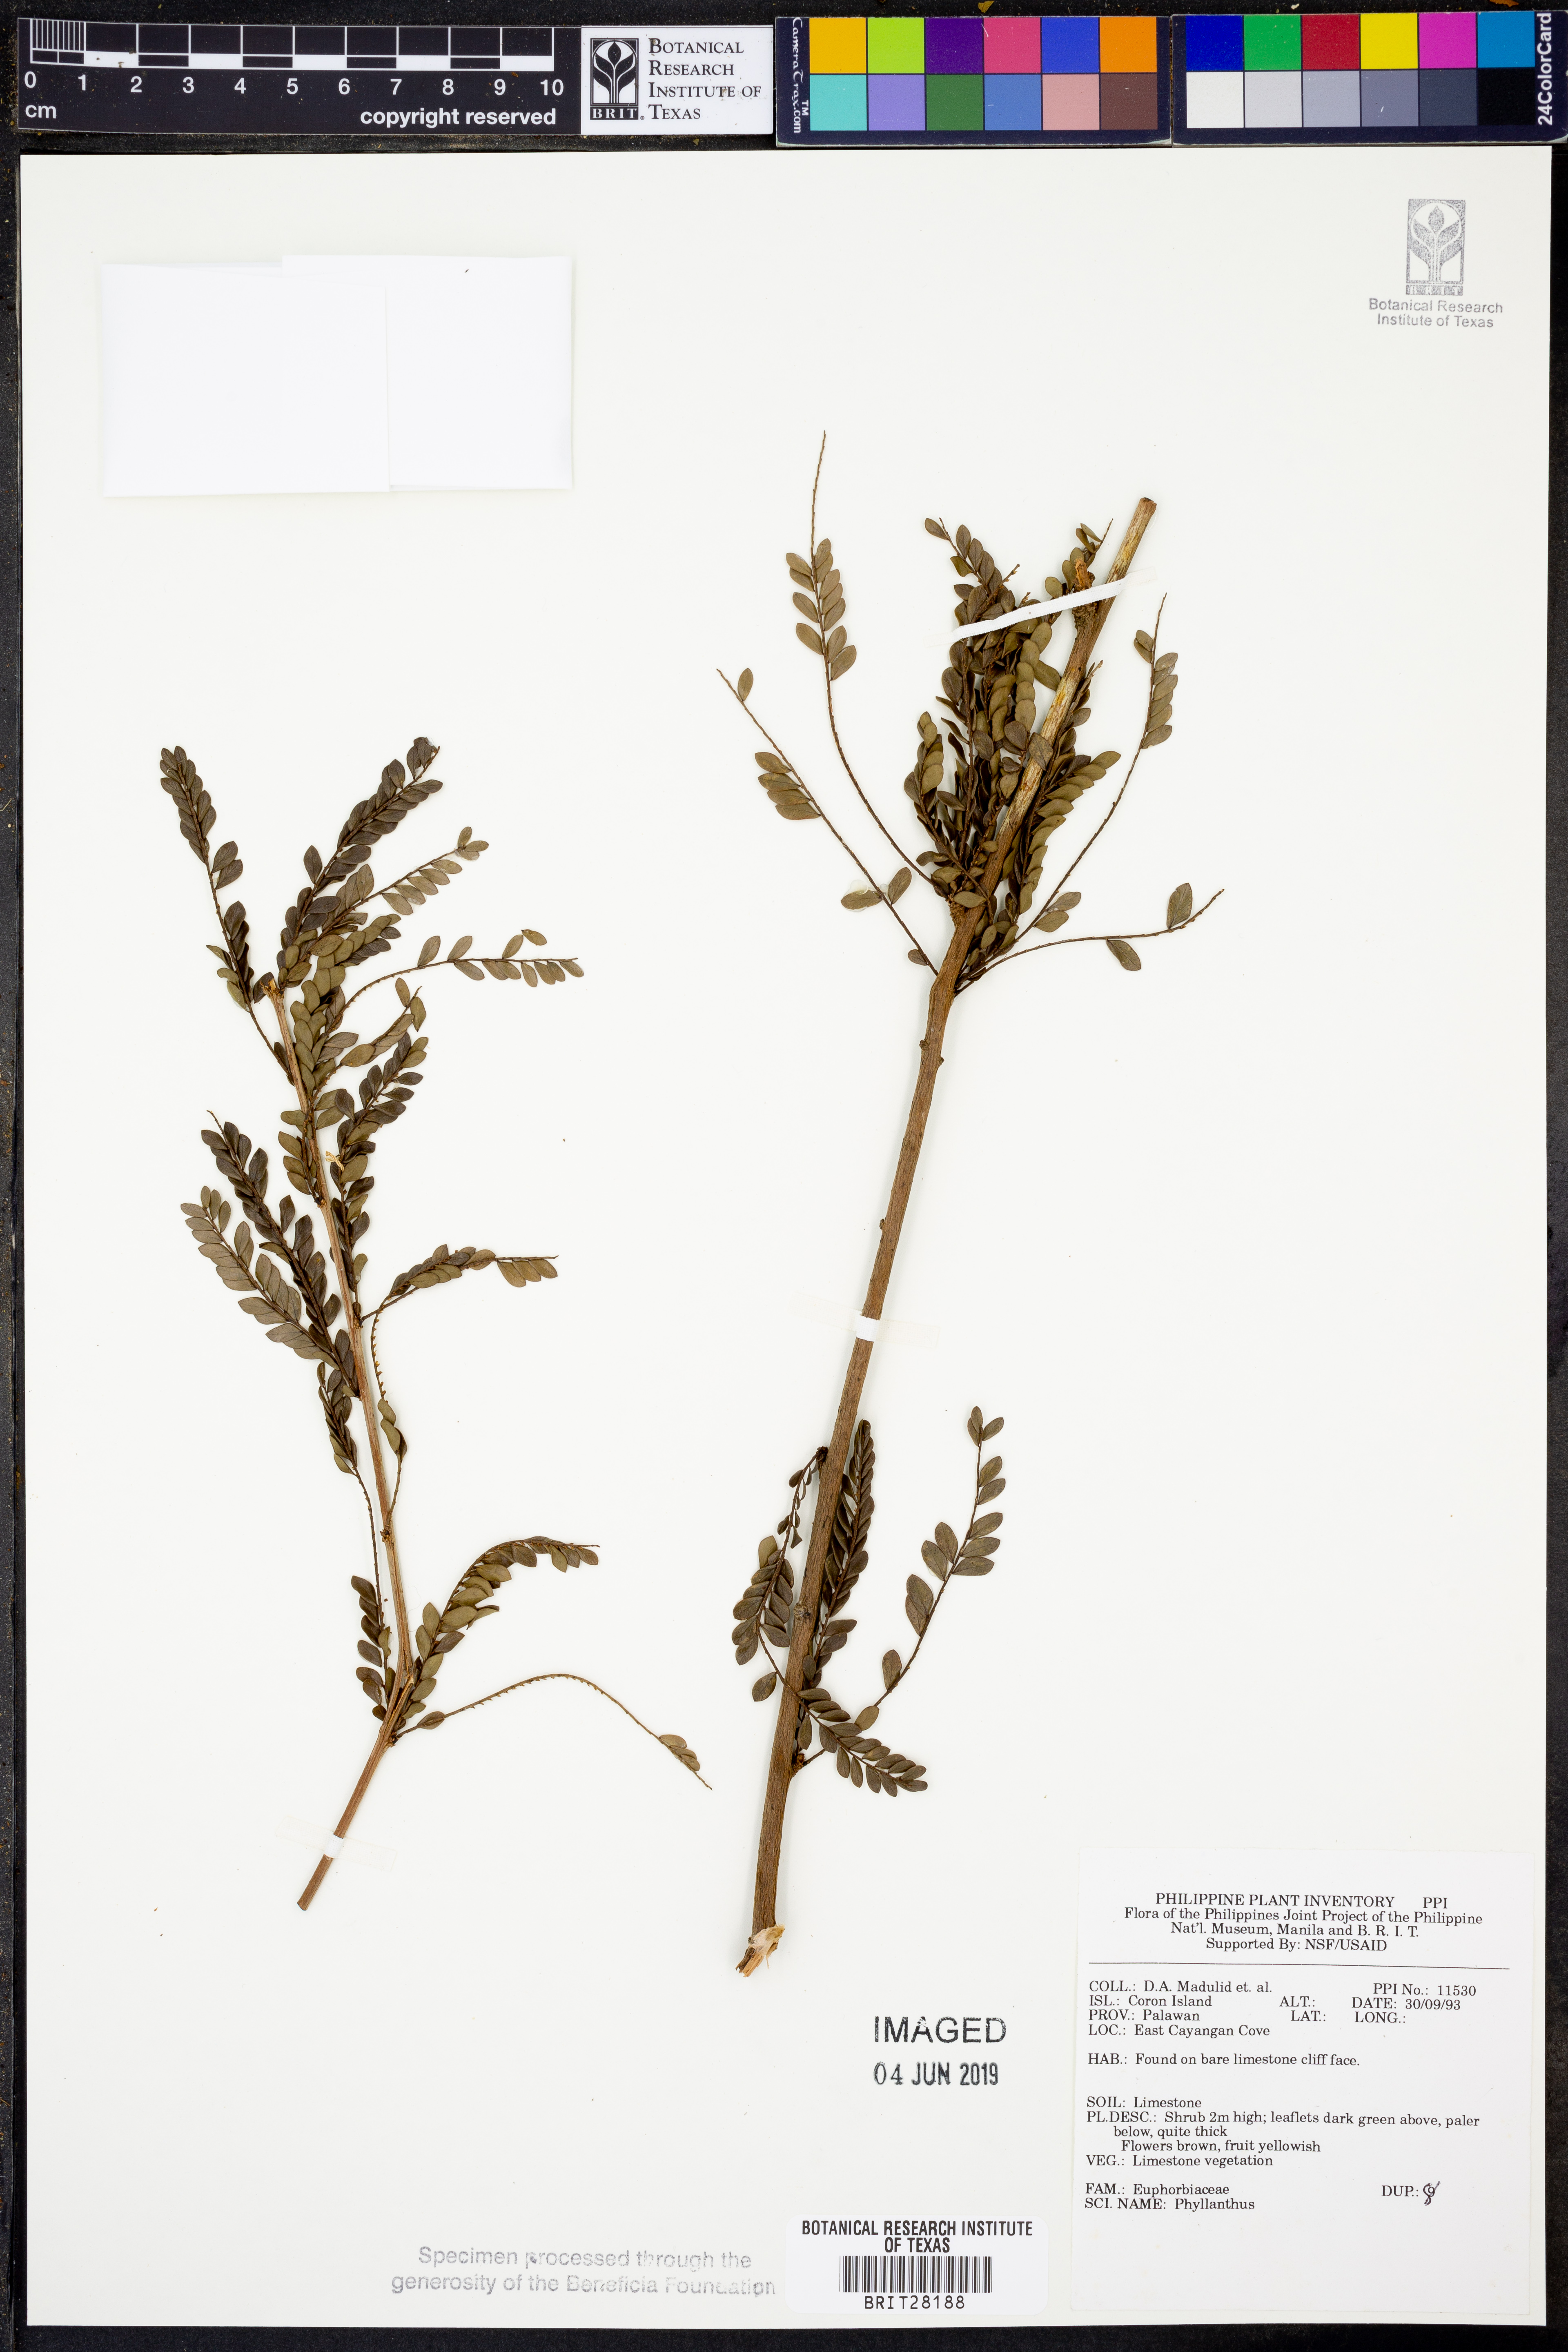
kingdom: Plantae
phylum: Tracheophyta
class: Magnoliopsida
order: Malpighiales
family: Phyllanthaceae
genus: Phyllanthus
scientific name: Phyllanthus
